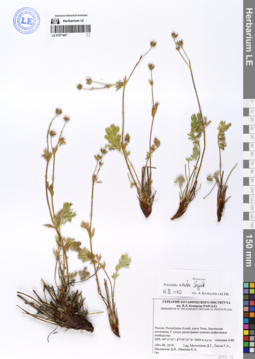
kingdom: Plantae
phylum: Tracheophyta
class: Magnoliopsida
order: Rosales
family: Rosaceae
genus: Potentilla
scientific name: Potentilla exuta
